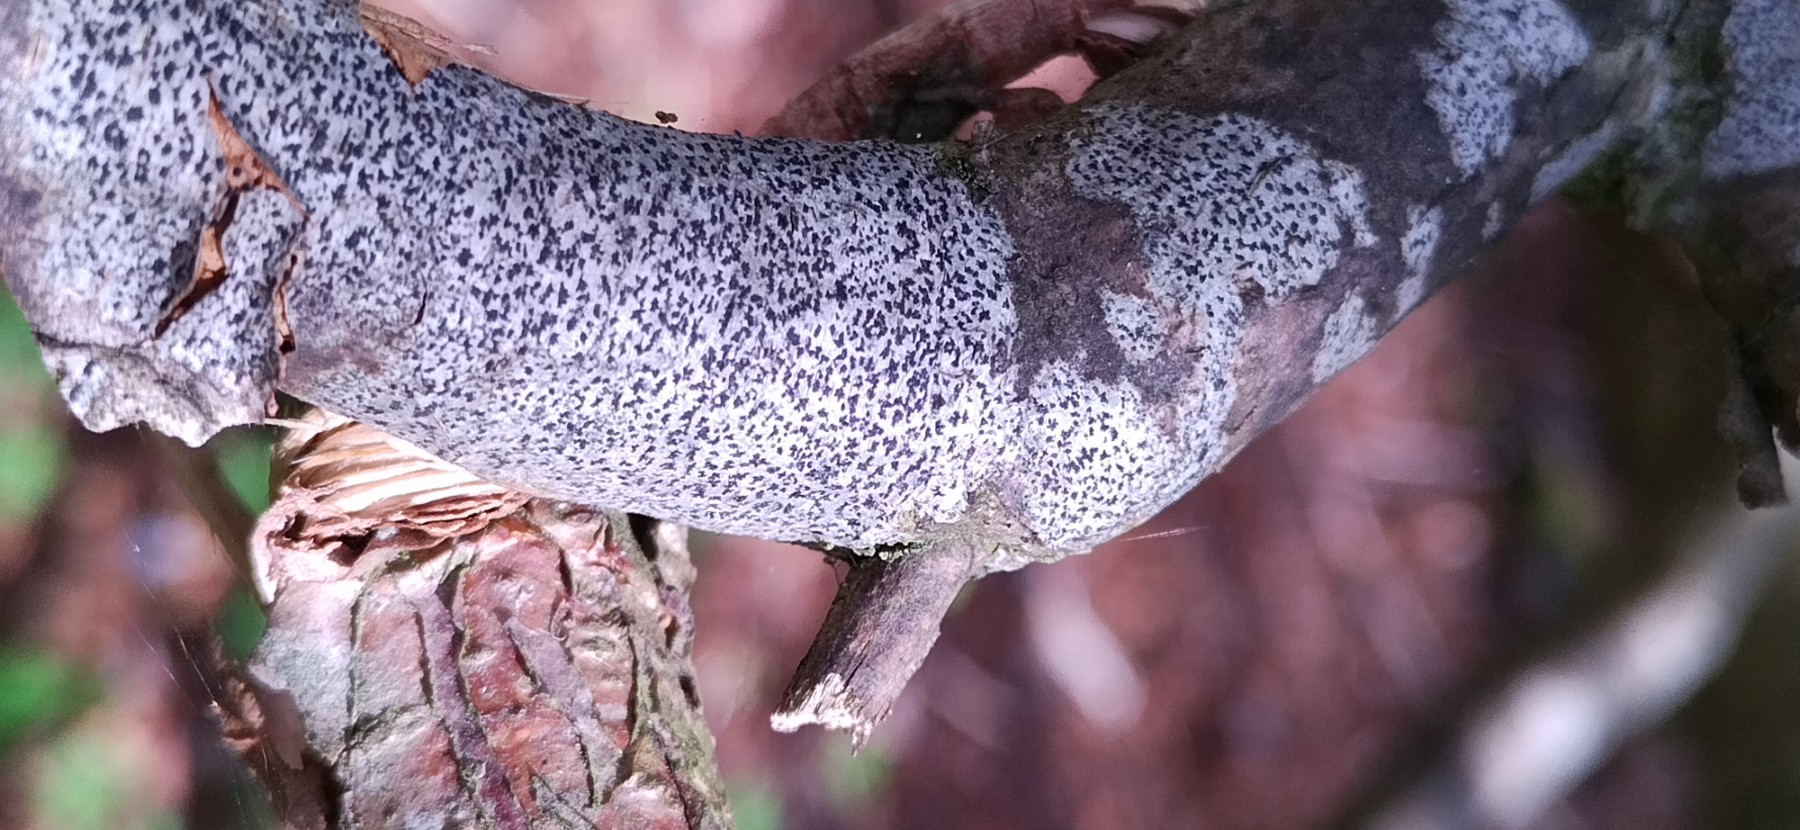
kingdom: Fungi
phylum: Ascomycota
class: Arthoniomycetes
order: Arthoniales
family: Arthoniaceae
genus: Arthonia
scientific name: Arthonia radiata
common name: stjerne-pletlav
